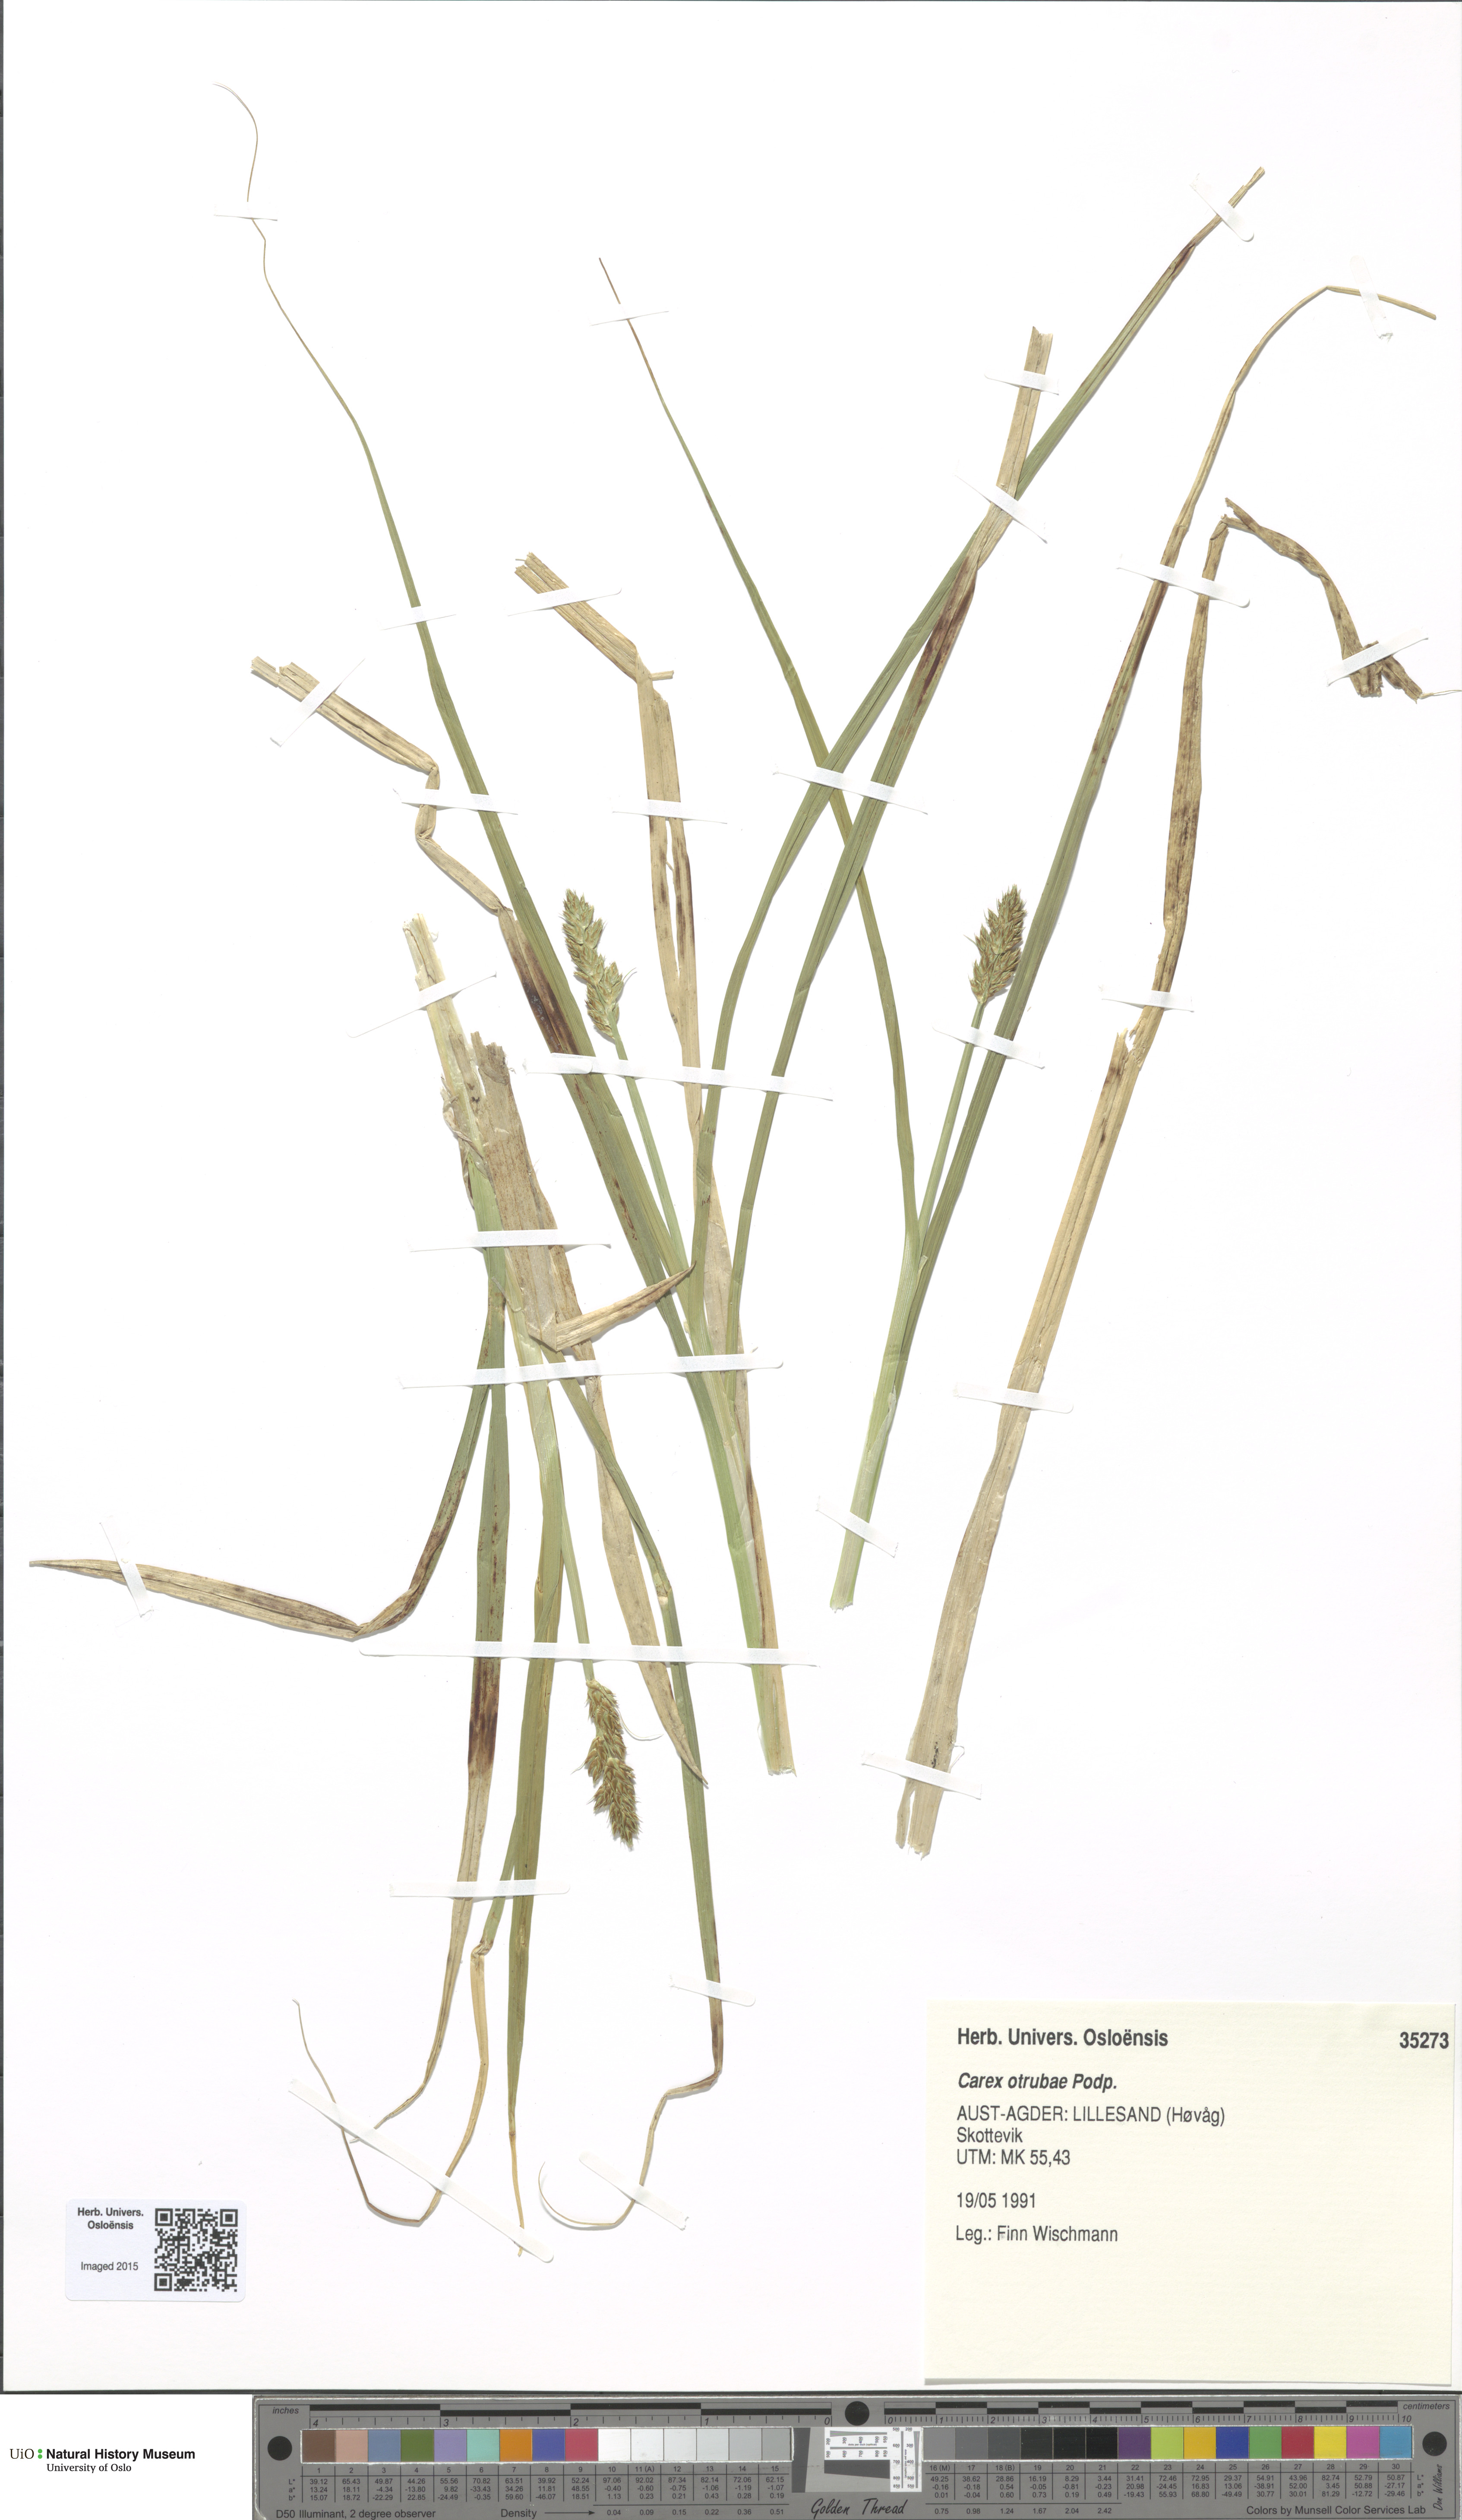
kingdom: Plantae
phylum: Tracheophyta
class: Liliopsida
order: Poales
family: Cyperaceae
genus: Carex
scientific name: Carex otrubae
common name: False fox-sedge
